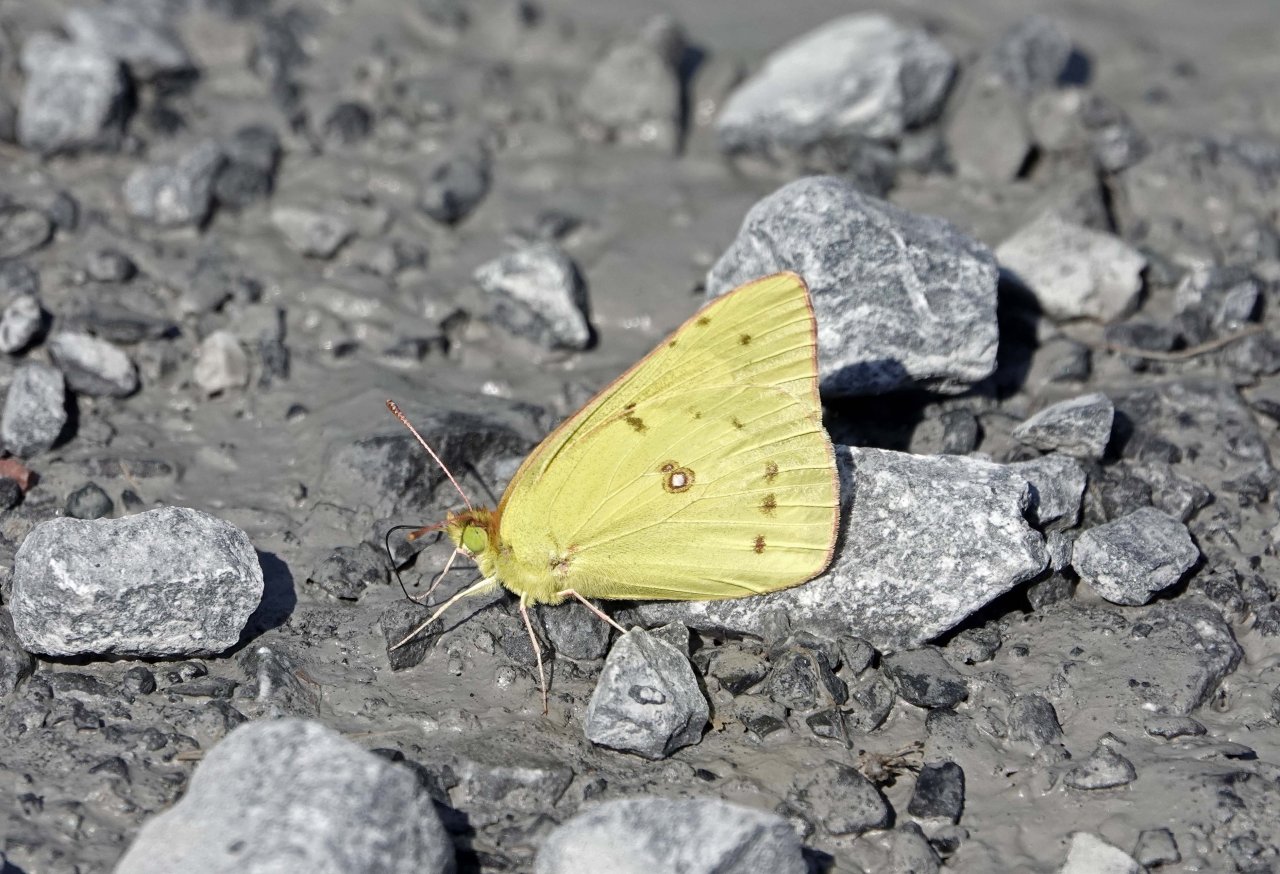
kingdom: Animalia
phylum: Arthropoda
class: Insecta
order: Lepidoptera
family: Pieridae
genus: Colias
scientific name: Colias eurytheme
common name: Orange Sulphur
